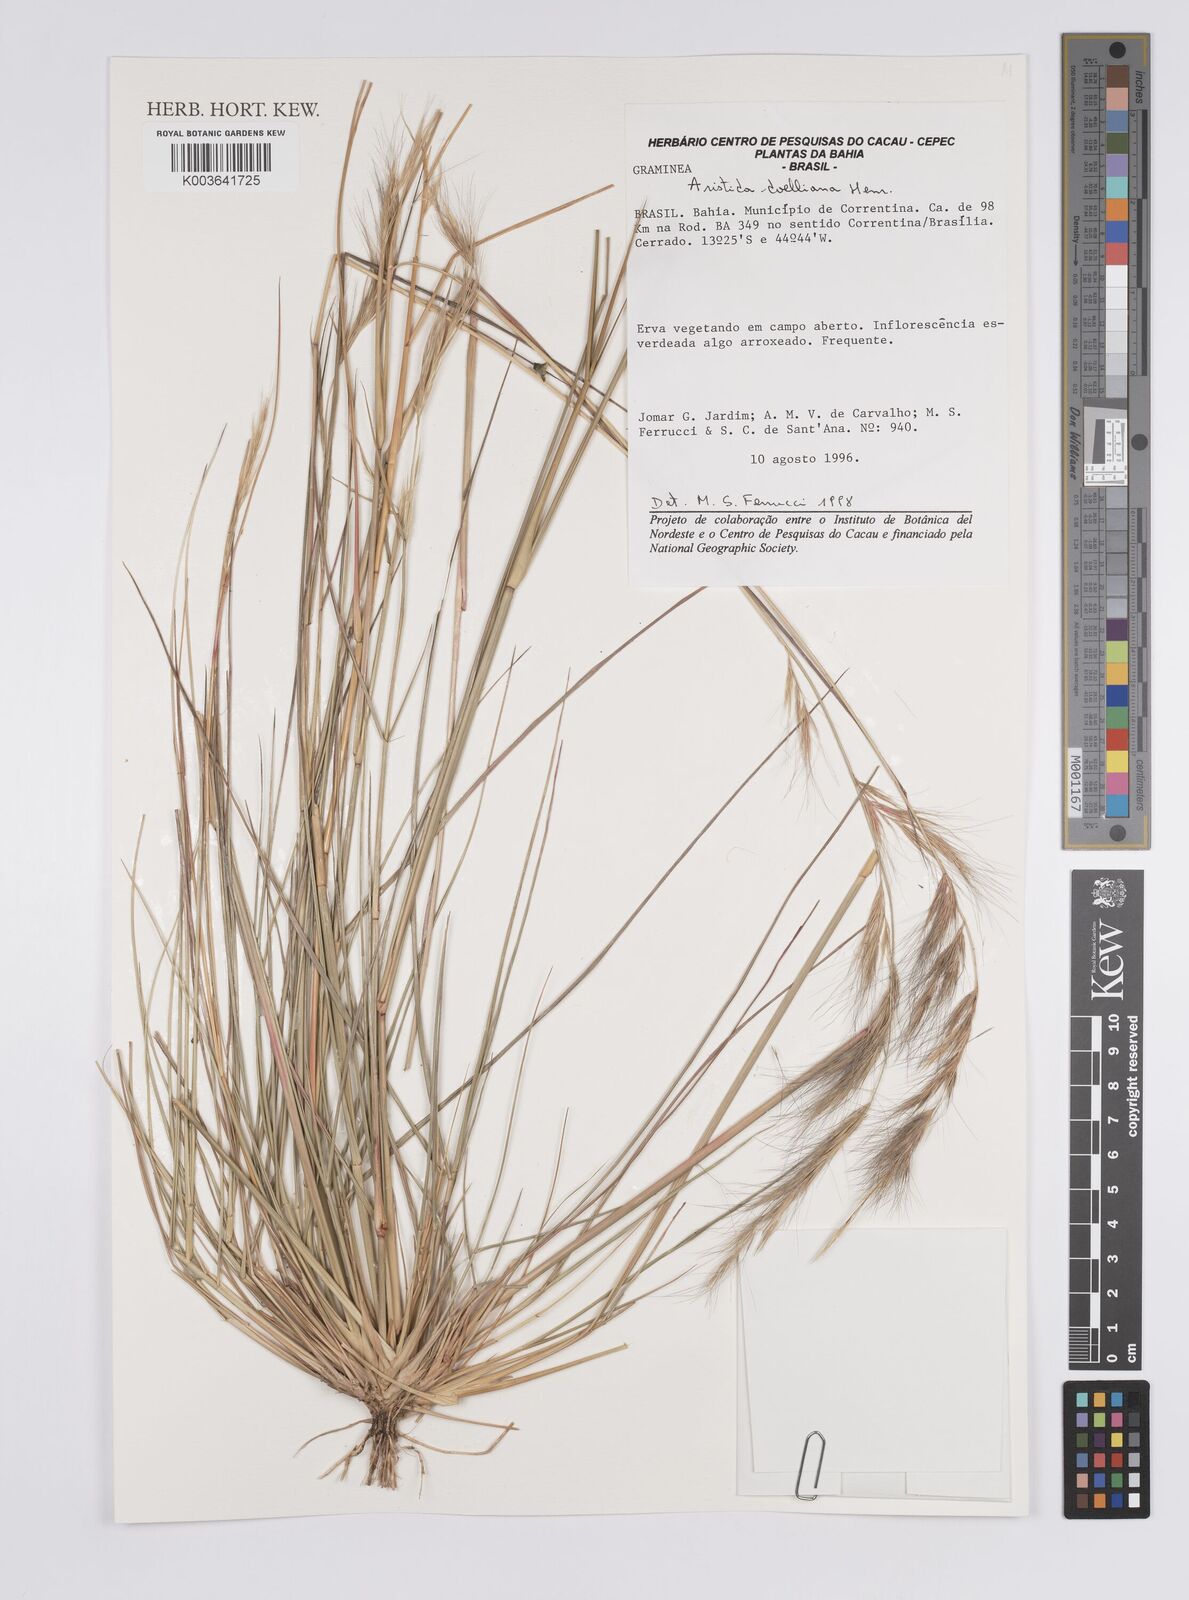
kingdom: Plantae
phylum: Tracheophyta
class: Liliopsida
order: Poales
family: Poaceae
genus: Aristida
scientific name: Aristida setifolia
